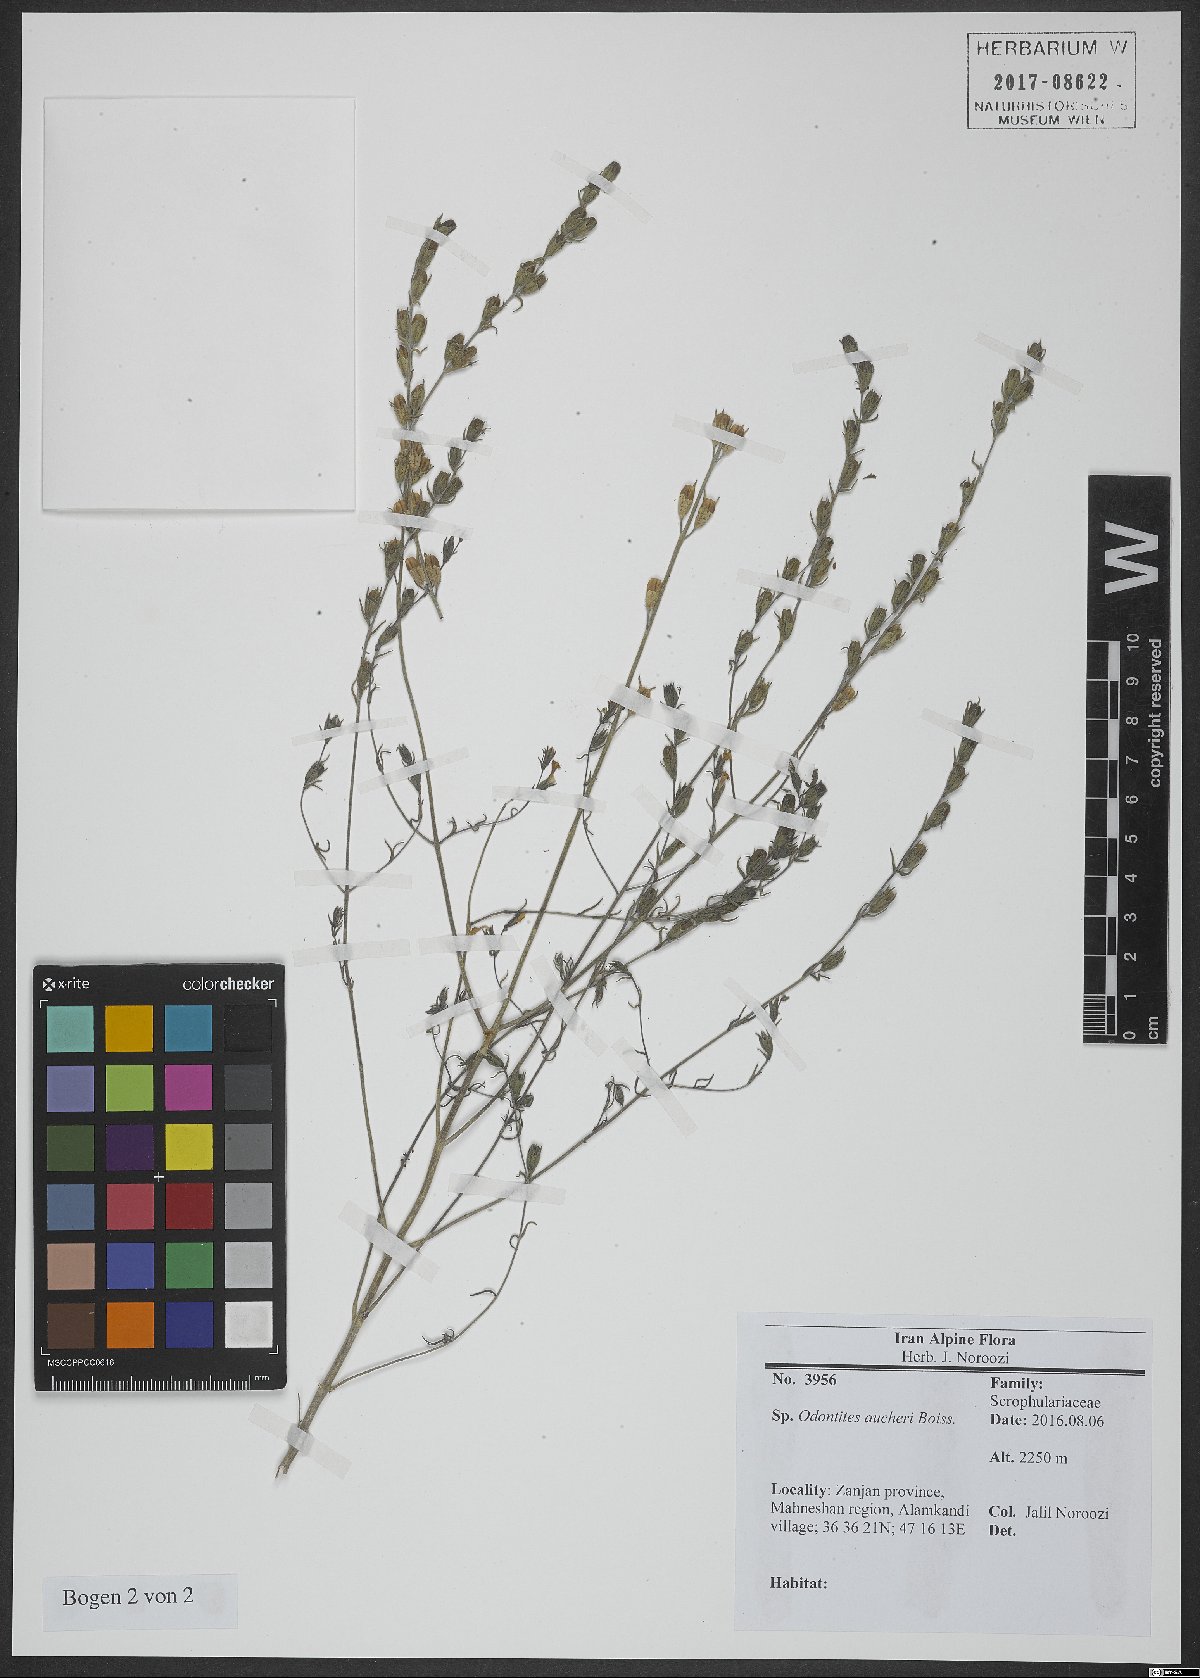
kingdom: Plantae
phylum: Tracheophyta
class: Magnoliopsida
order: Lamiales
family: Orobanchaceae
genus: Odontites
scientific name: Odontites aucheri
